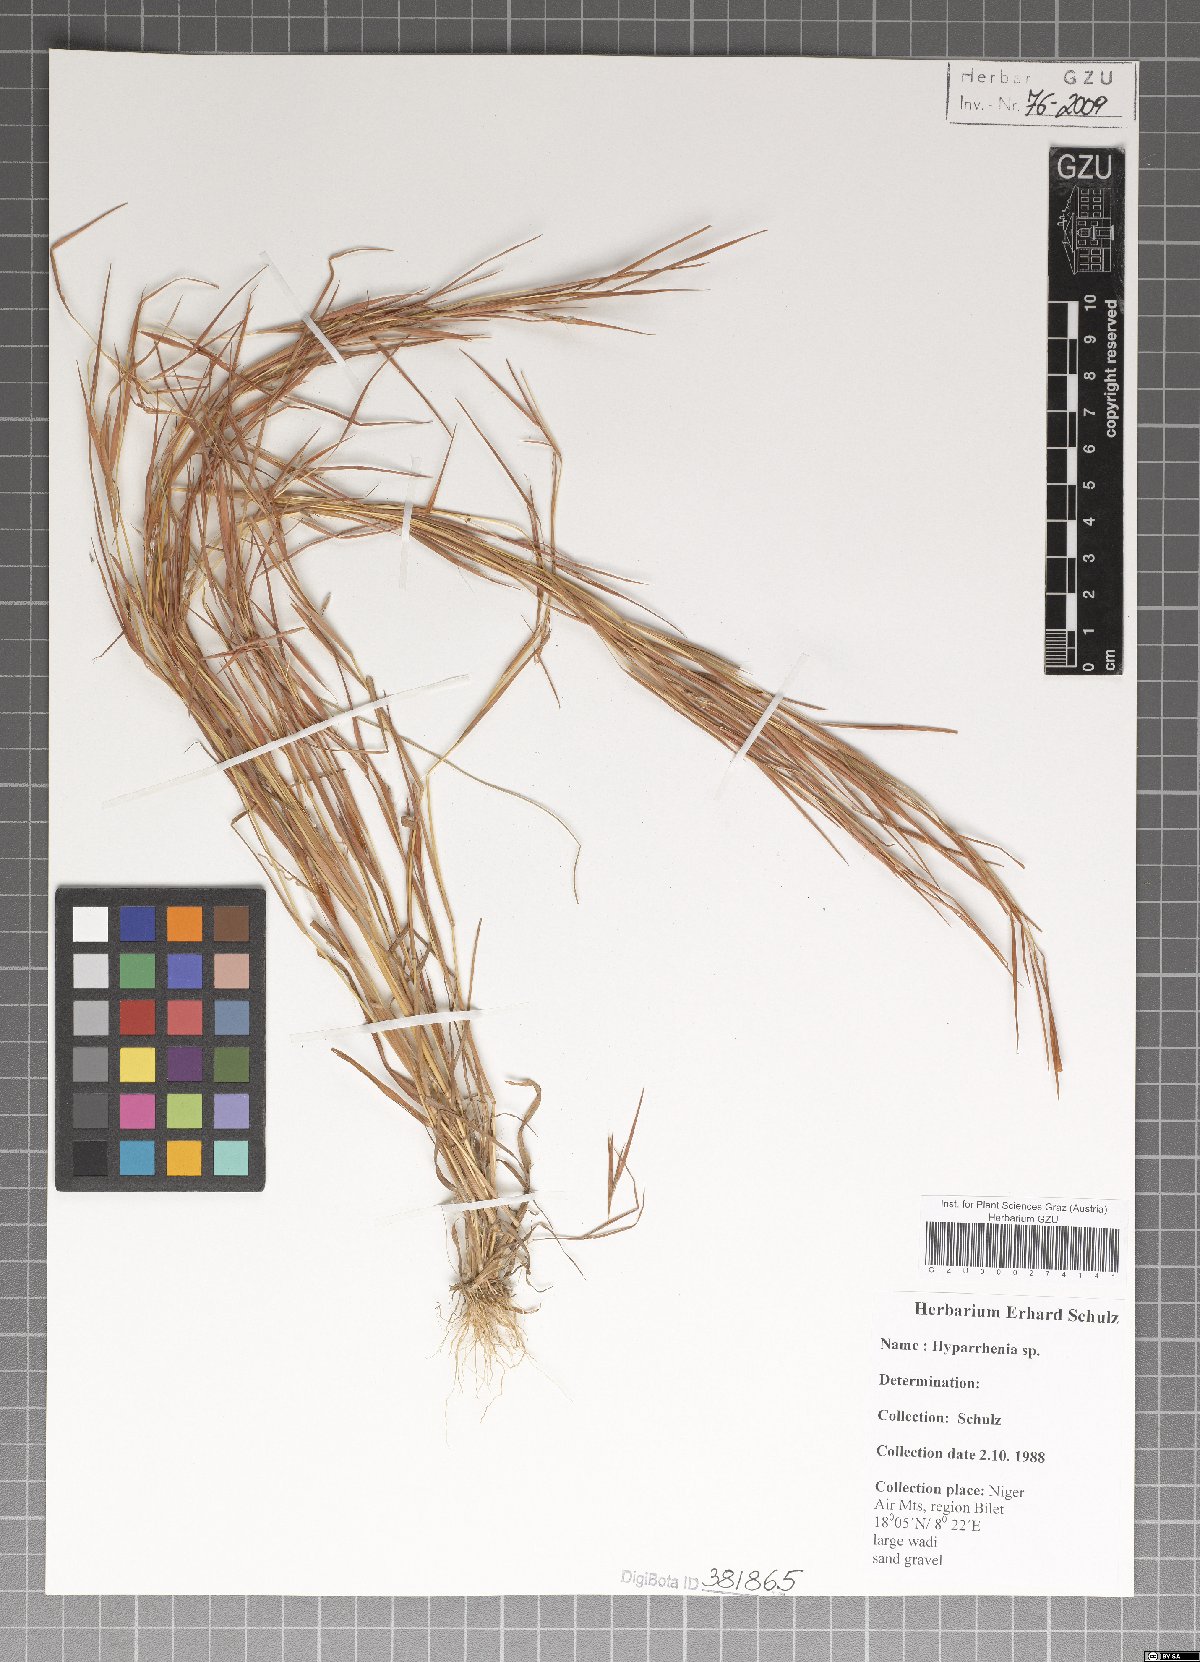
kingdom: Plantae
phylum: Tracheophyta
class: Liliopsida
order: Poales
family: Poaceae
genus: Hyparrhenia
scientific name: Hyparrhenia
